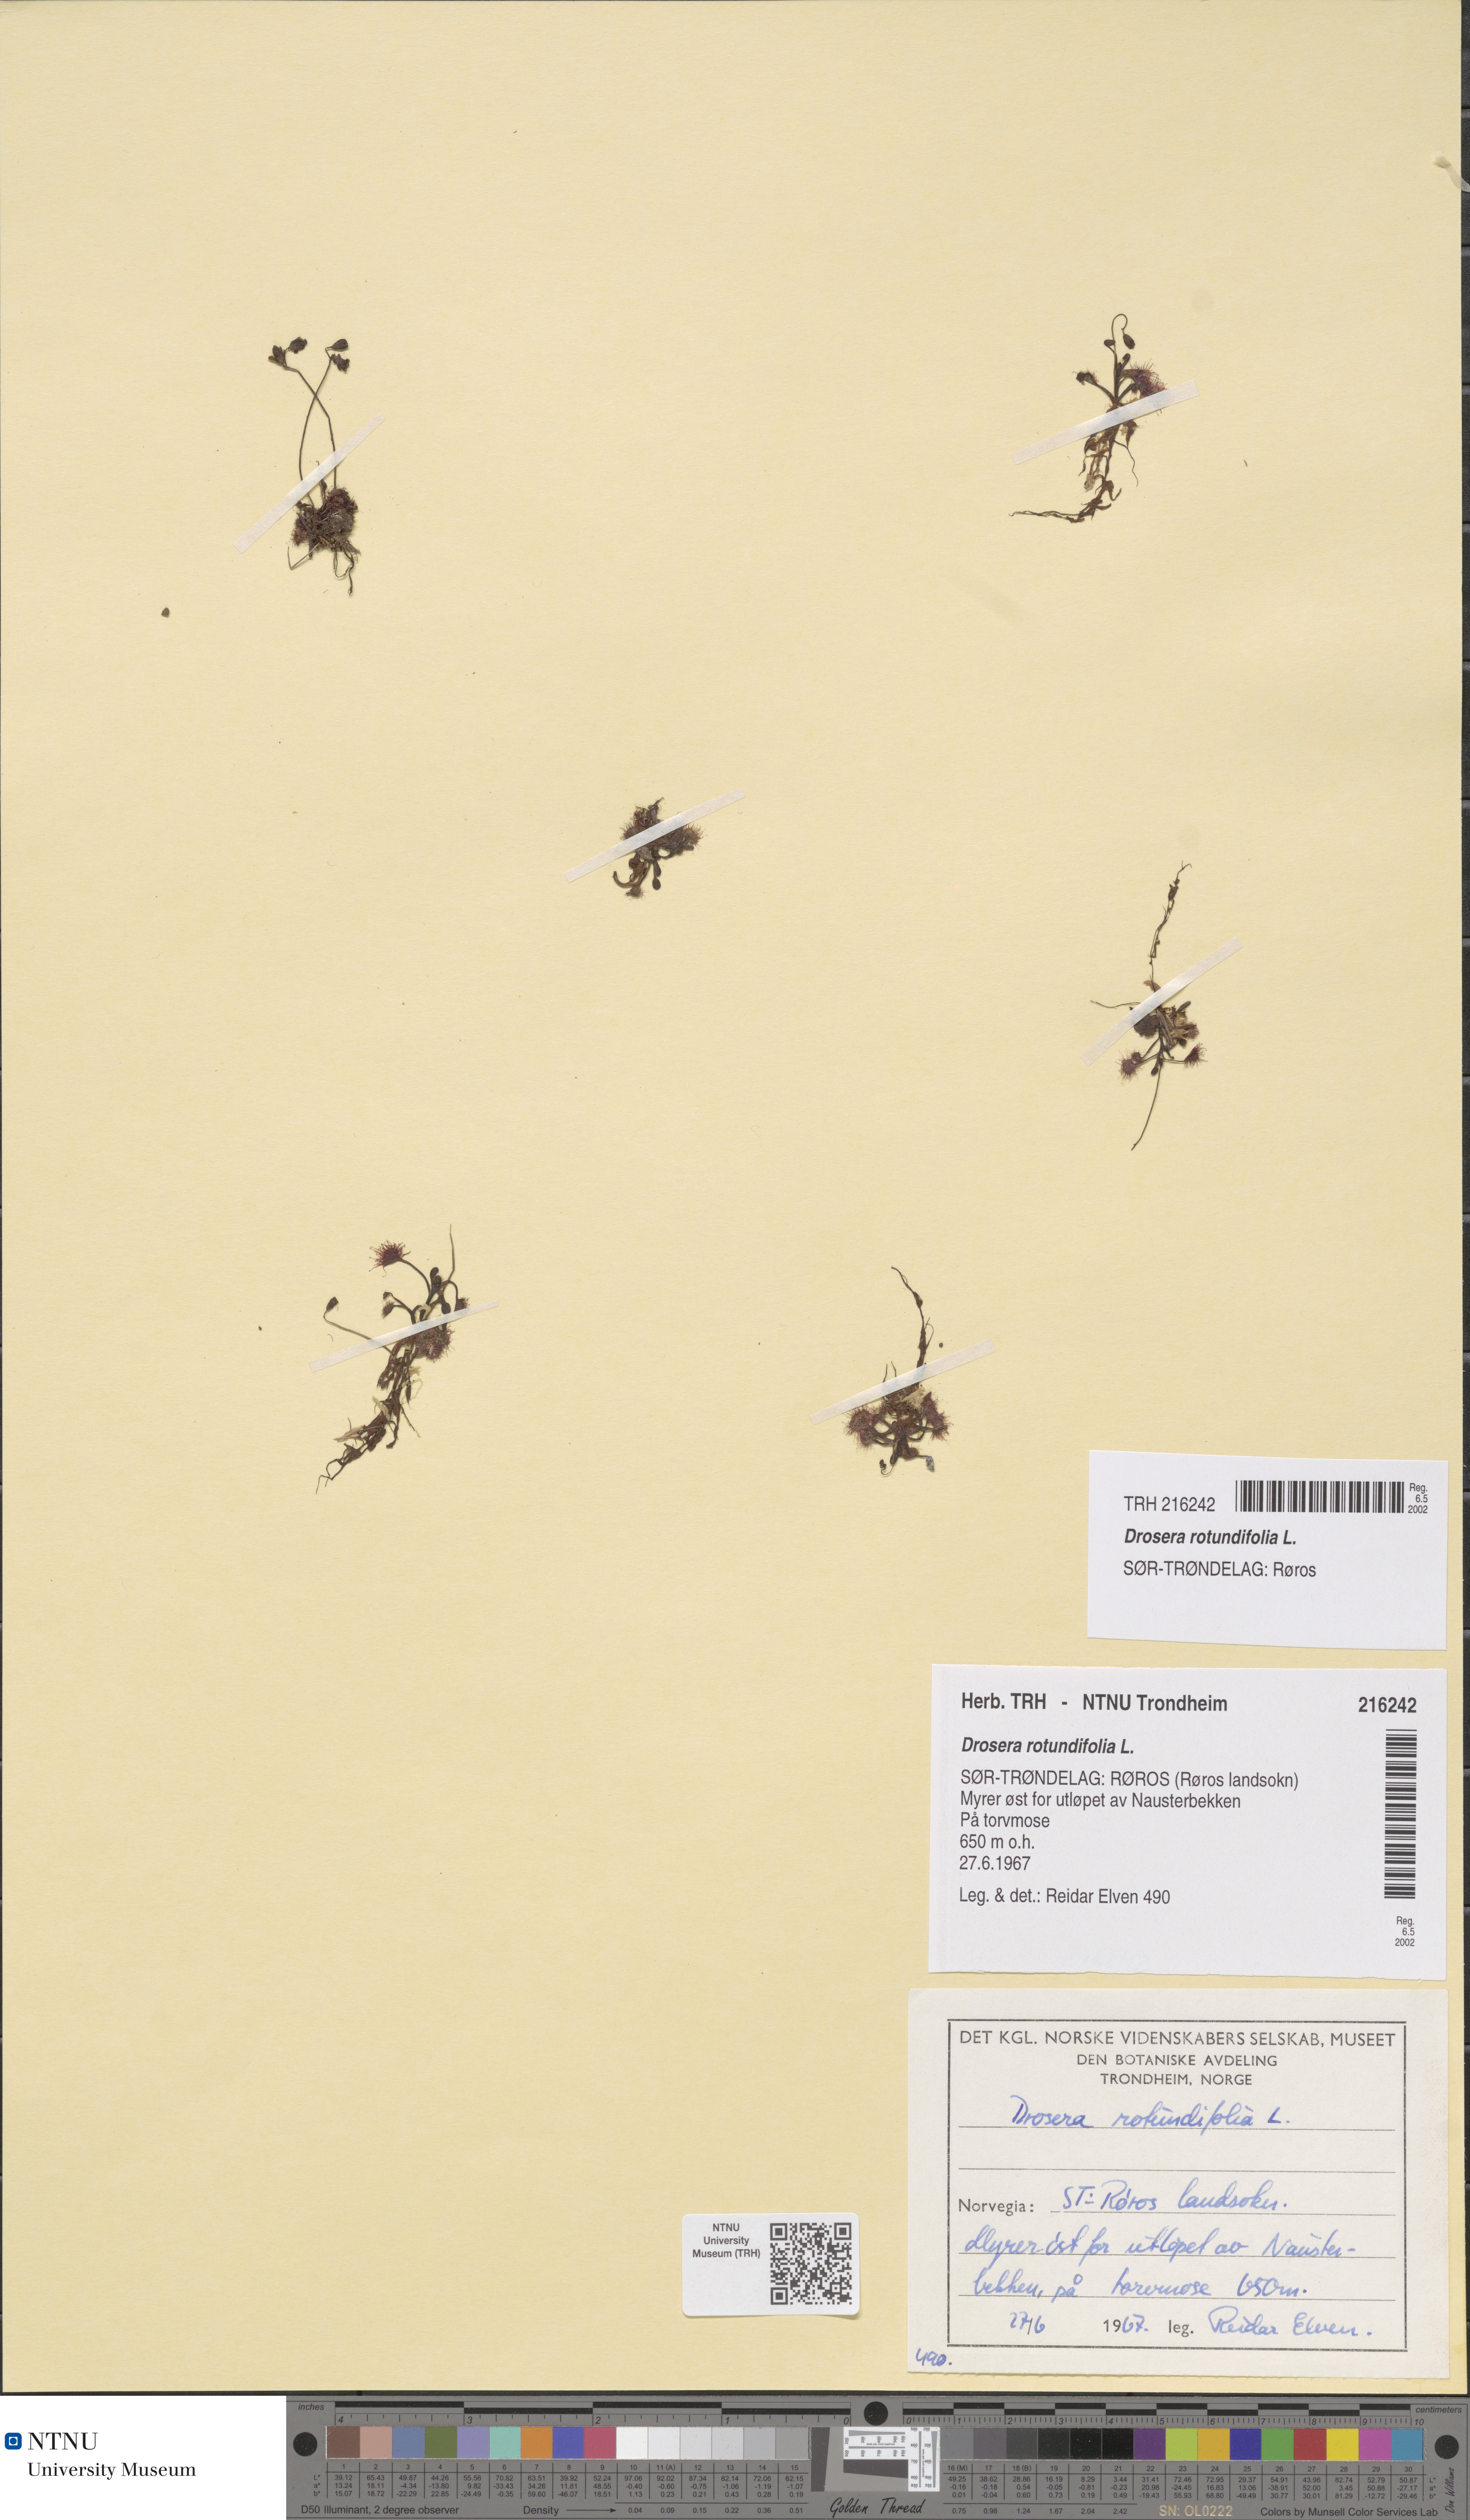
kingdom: Plantae
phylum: Tracheophyta
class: Magnoliopsida
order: Caryophyllales
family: Droseraceae
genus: Drosera
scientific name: Drosera rotundifolia
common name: Round-leaved sundew
